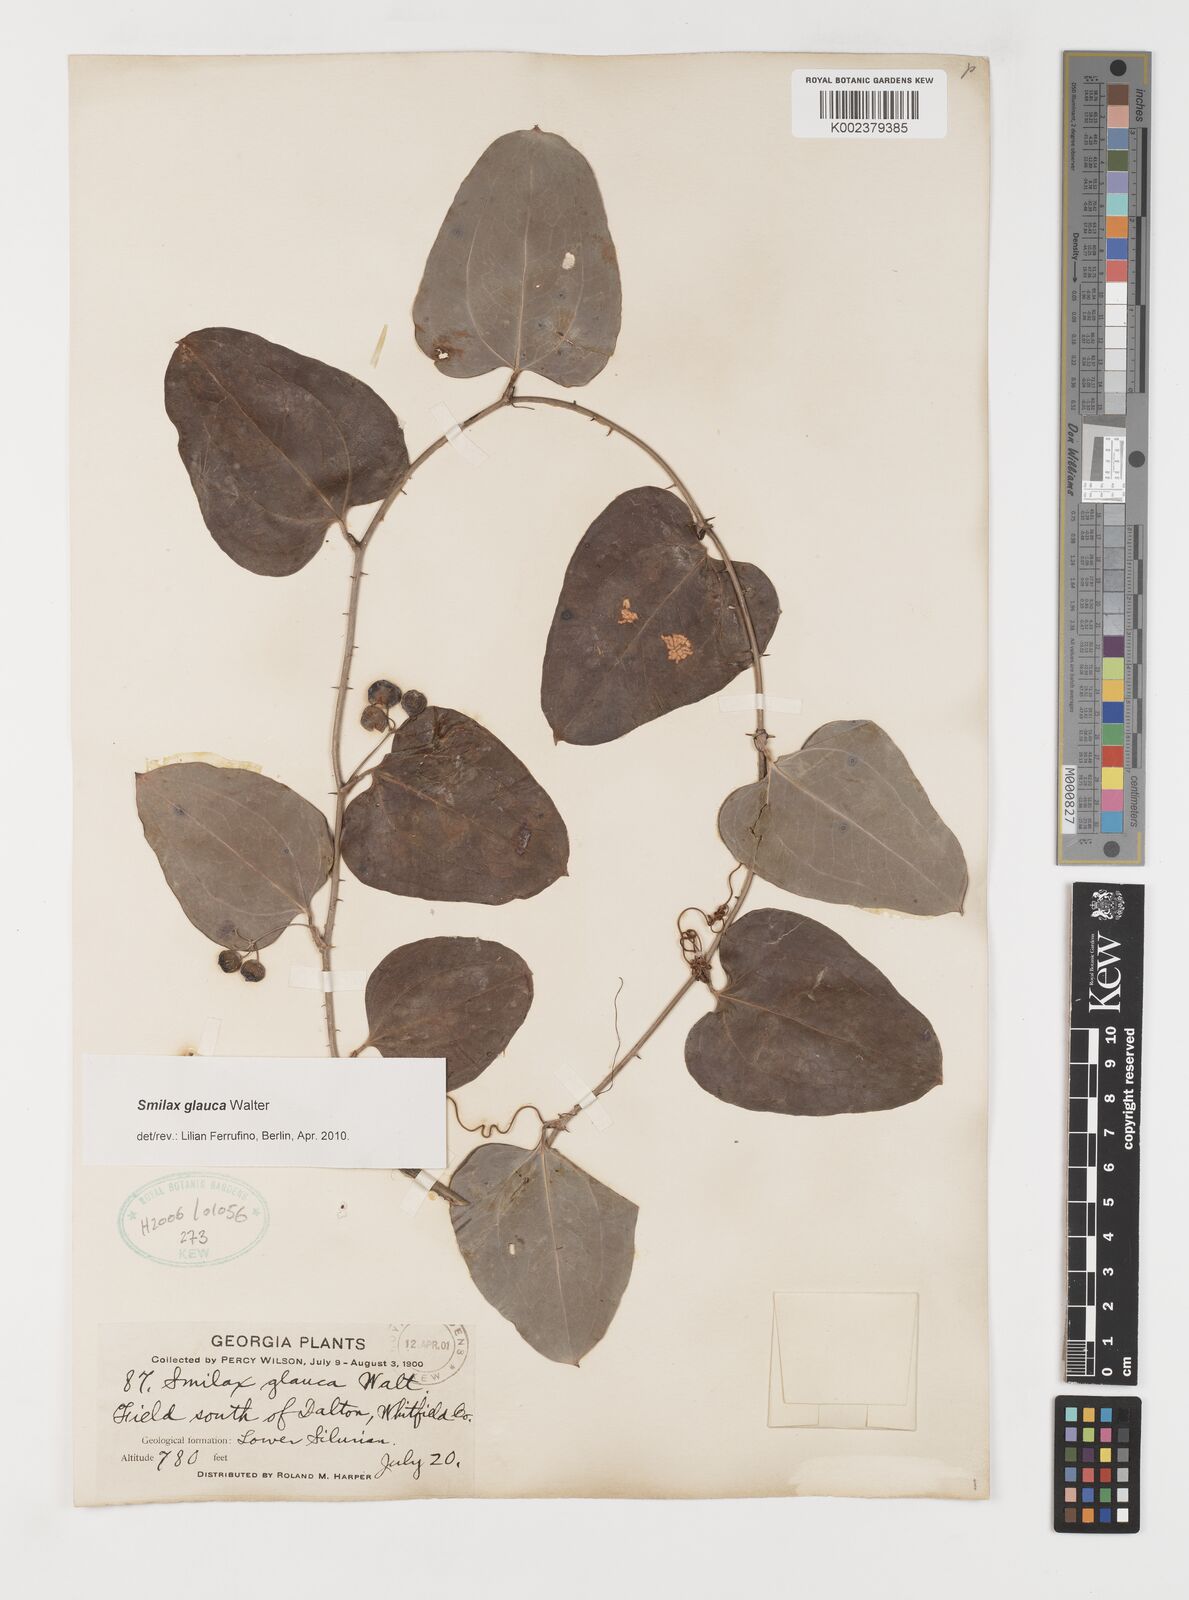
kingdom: Plantae
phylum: Tracheophyta
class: Liliopsida
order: Liliales
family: Smilacaceae
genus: Smilax
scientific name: Smilax glauca
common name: Cat greenbrier
